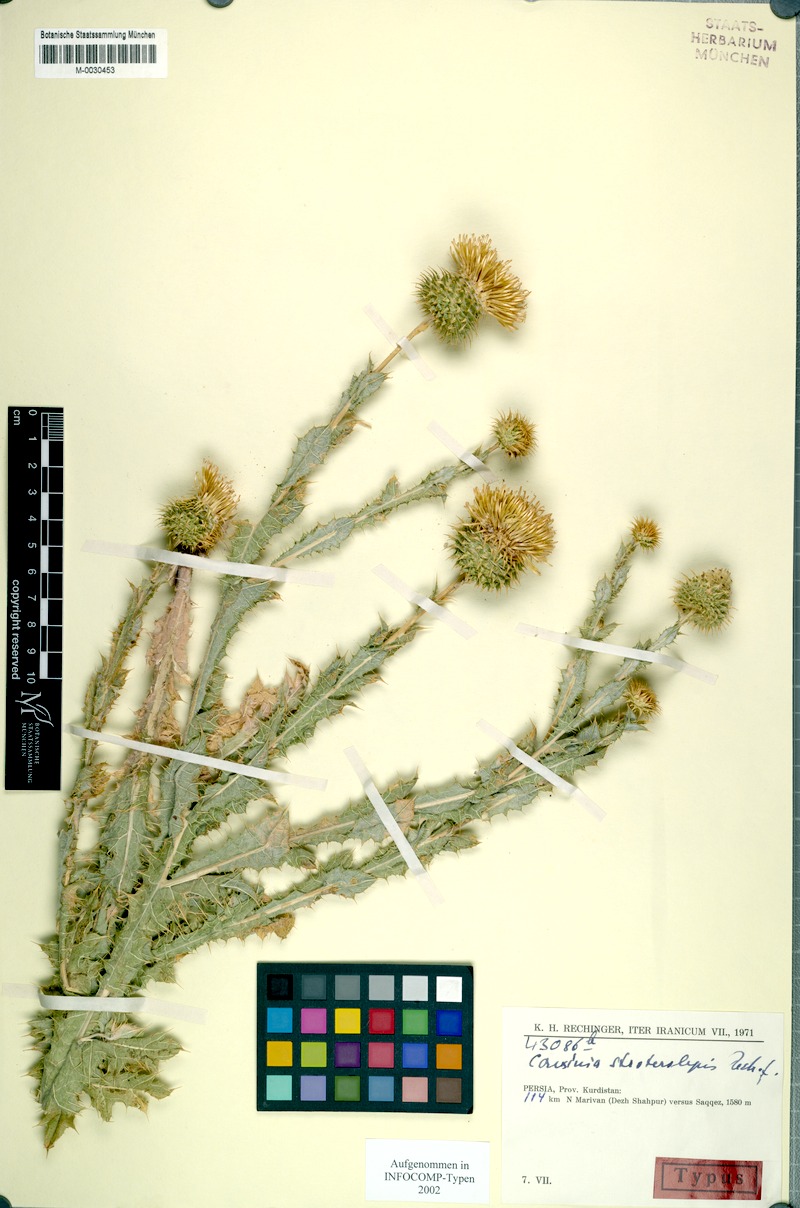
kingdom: Plantae
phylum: Tracheophyta
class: Magnoliopsida
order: Asterales
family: Asteraceae
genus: Cousinia
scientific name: Cousinia stroterolepis
